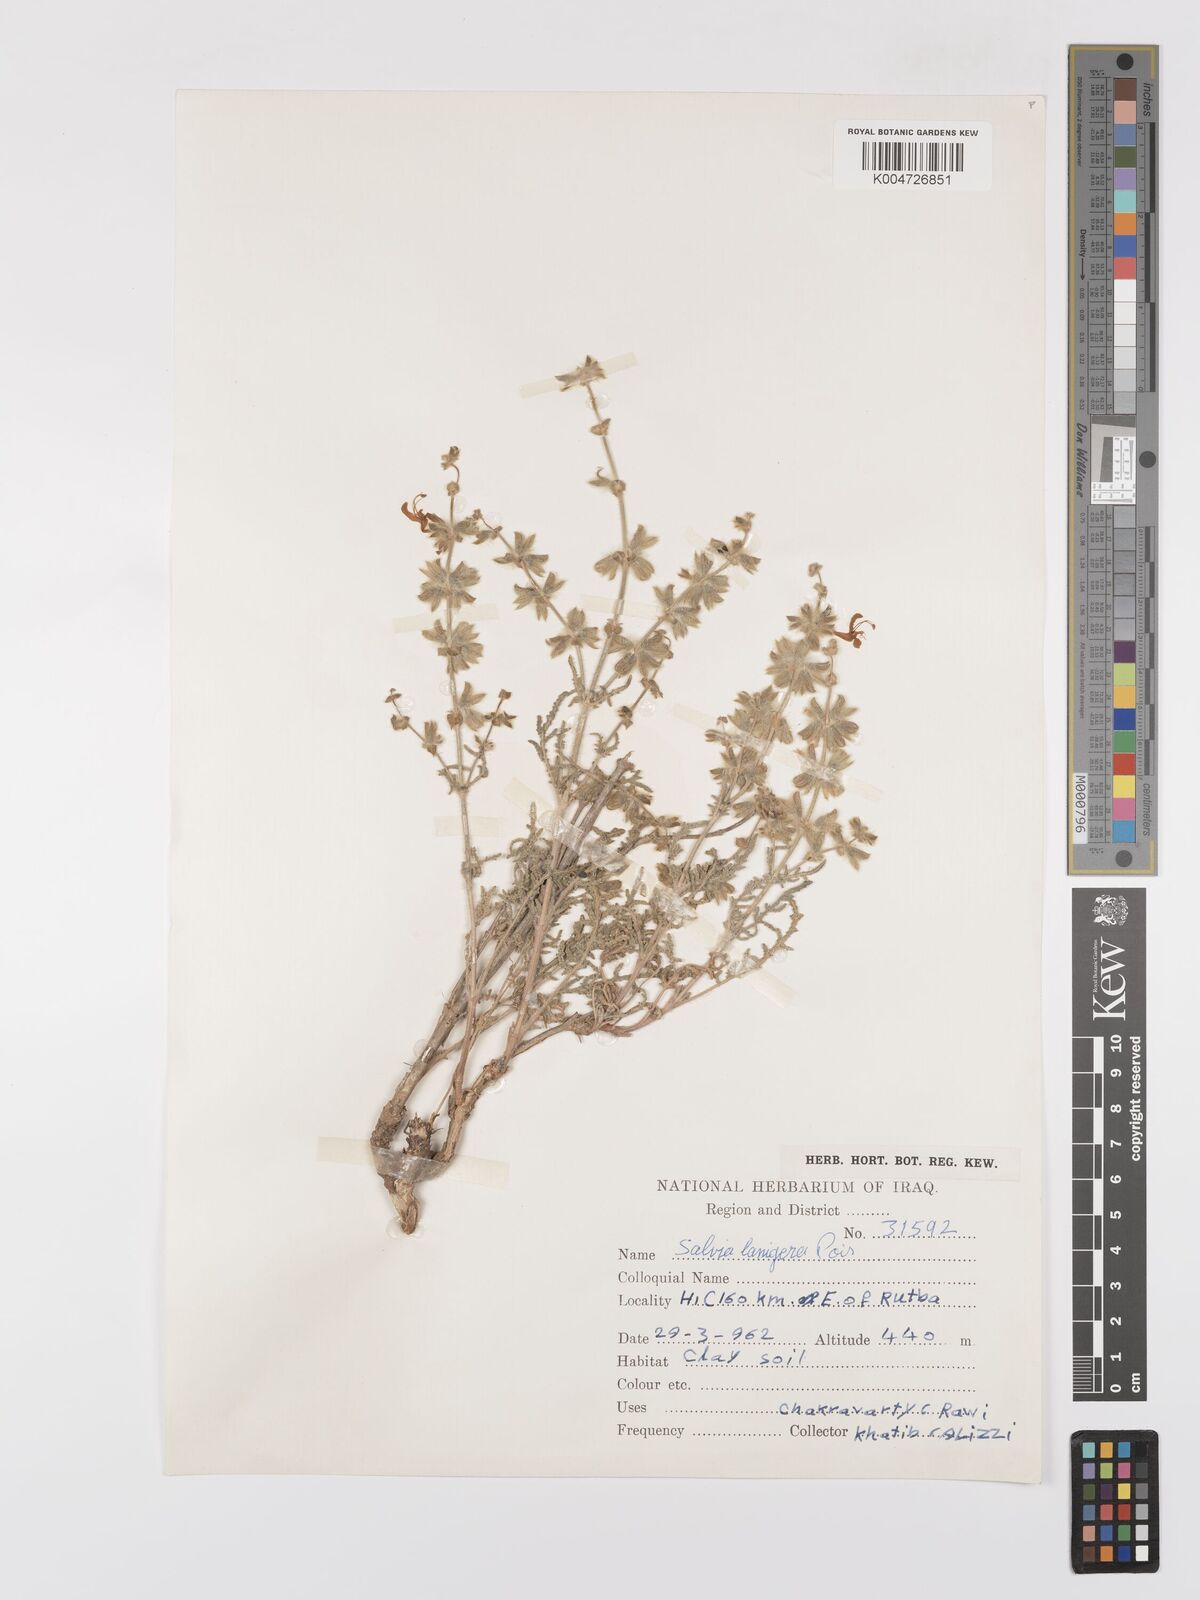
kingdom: Plantae
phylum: Tracheophyta
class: Magnoliopsida
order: Lamiales
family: Lamiaceae
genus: Salvia
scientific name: Salvia
